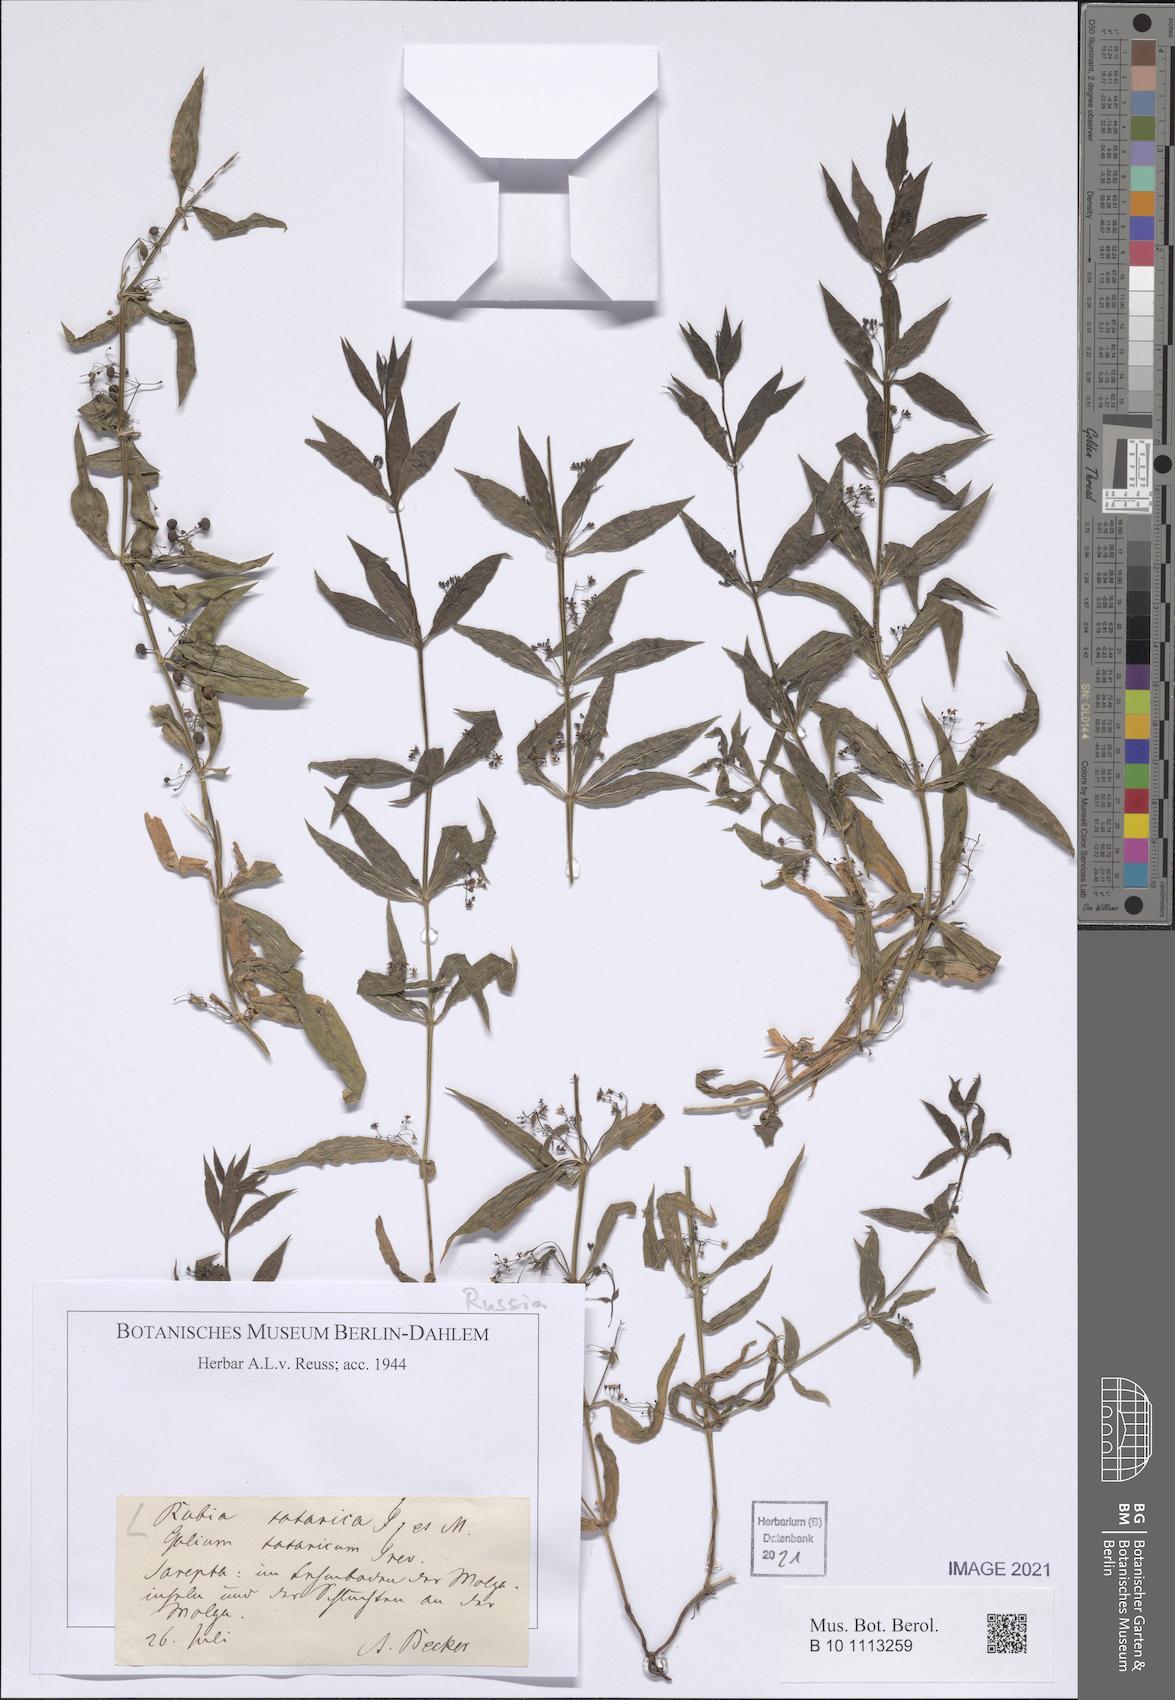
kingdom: Plantae
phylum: Tracheophyta
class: Magnoliopsida
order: Gentianales
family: Rubiaceae
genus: Rubia
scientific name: Rubia tatarica
